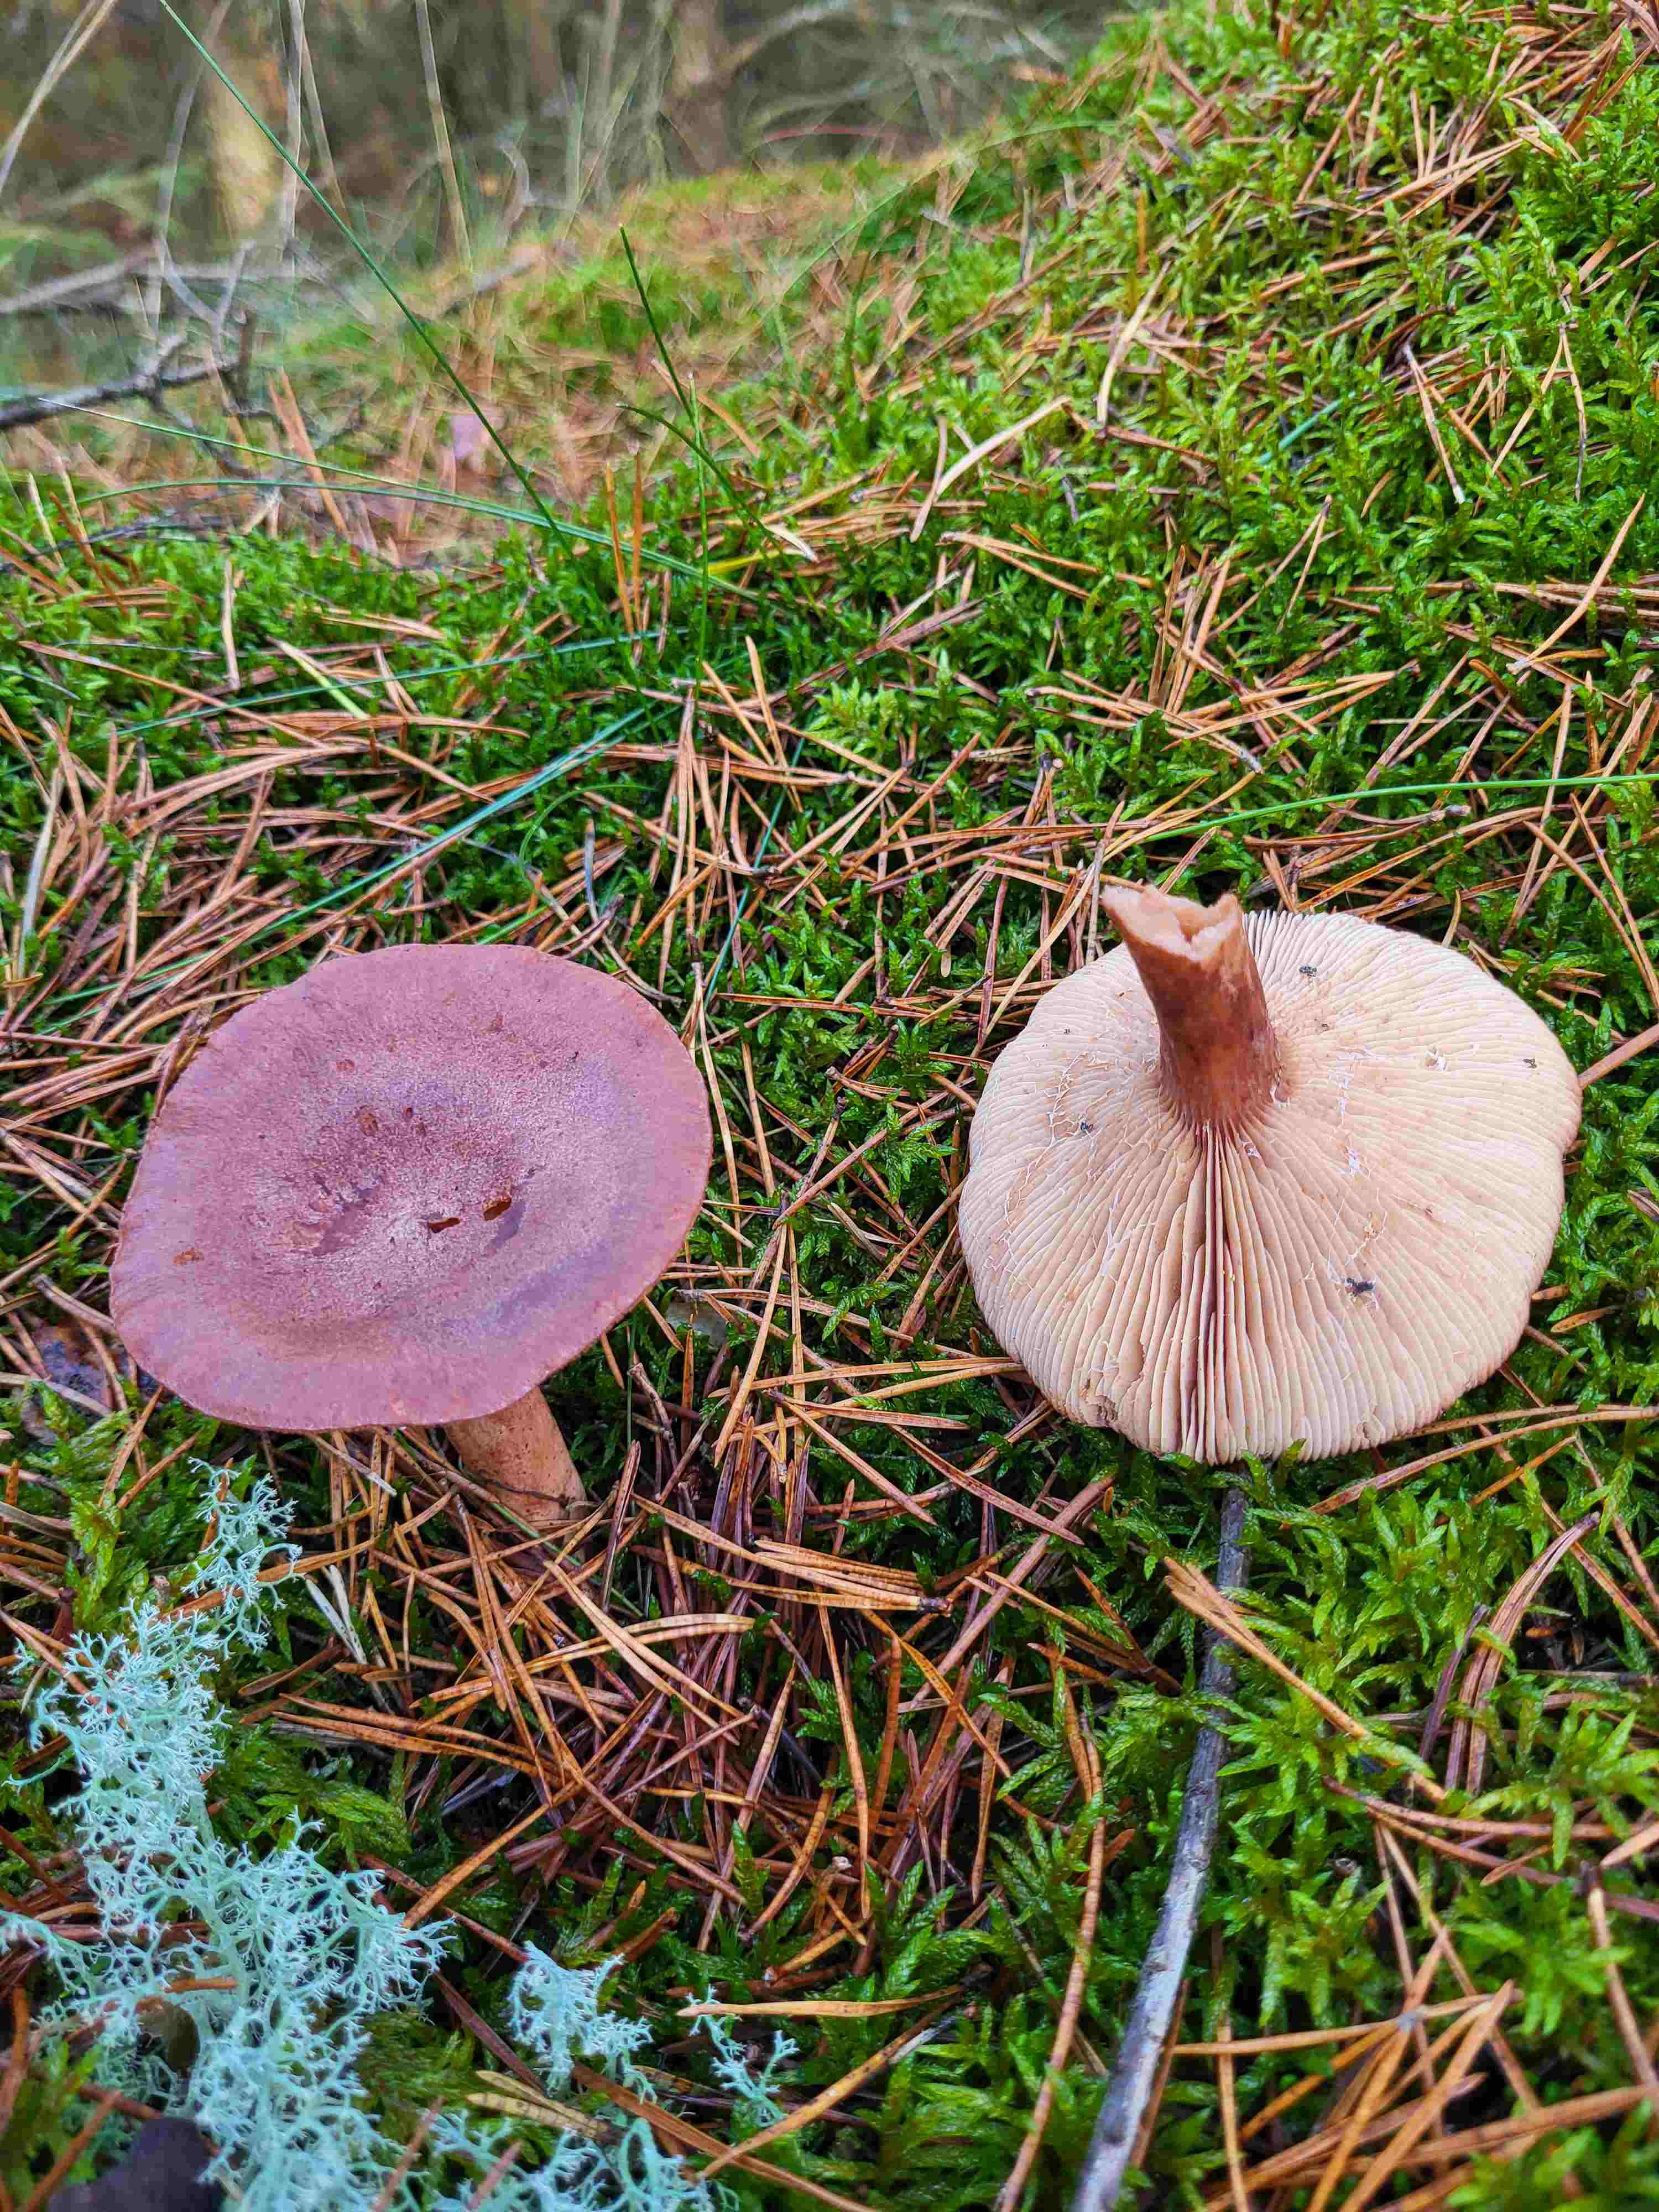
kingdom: Fungi
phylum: Basidiomycota
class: Agaricomycetes
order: Russulales
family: Russulaceae
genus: Lactarius
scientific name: Lactarius rufus
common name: rødbrun mælkehat
